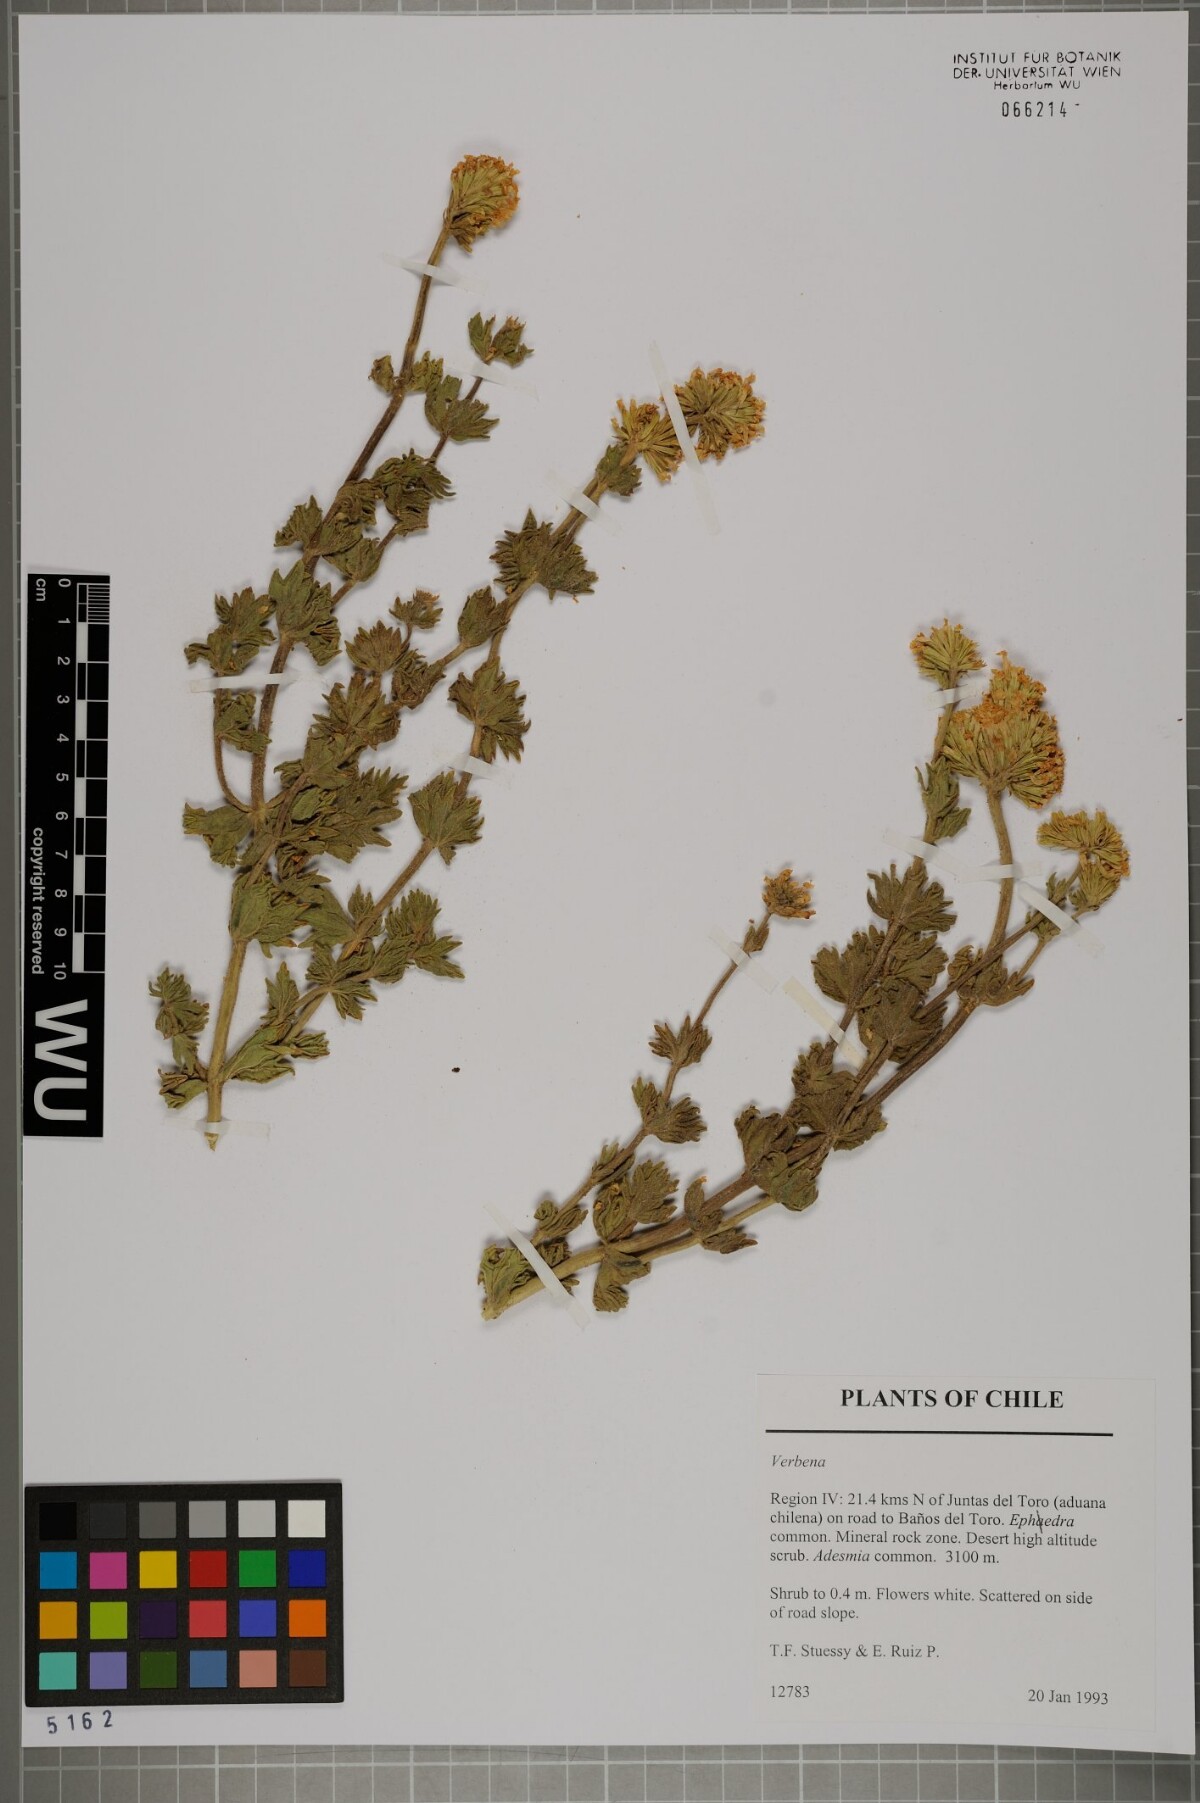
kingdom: Plantae
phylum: Tracheophyta
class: Magnoliopsida
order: Lamiales
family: Verbenaceae
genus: Verbena
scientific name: Verbena
